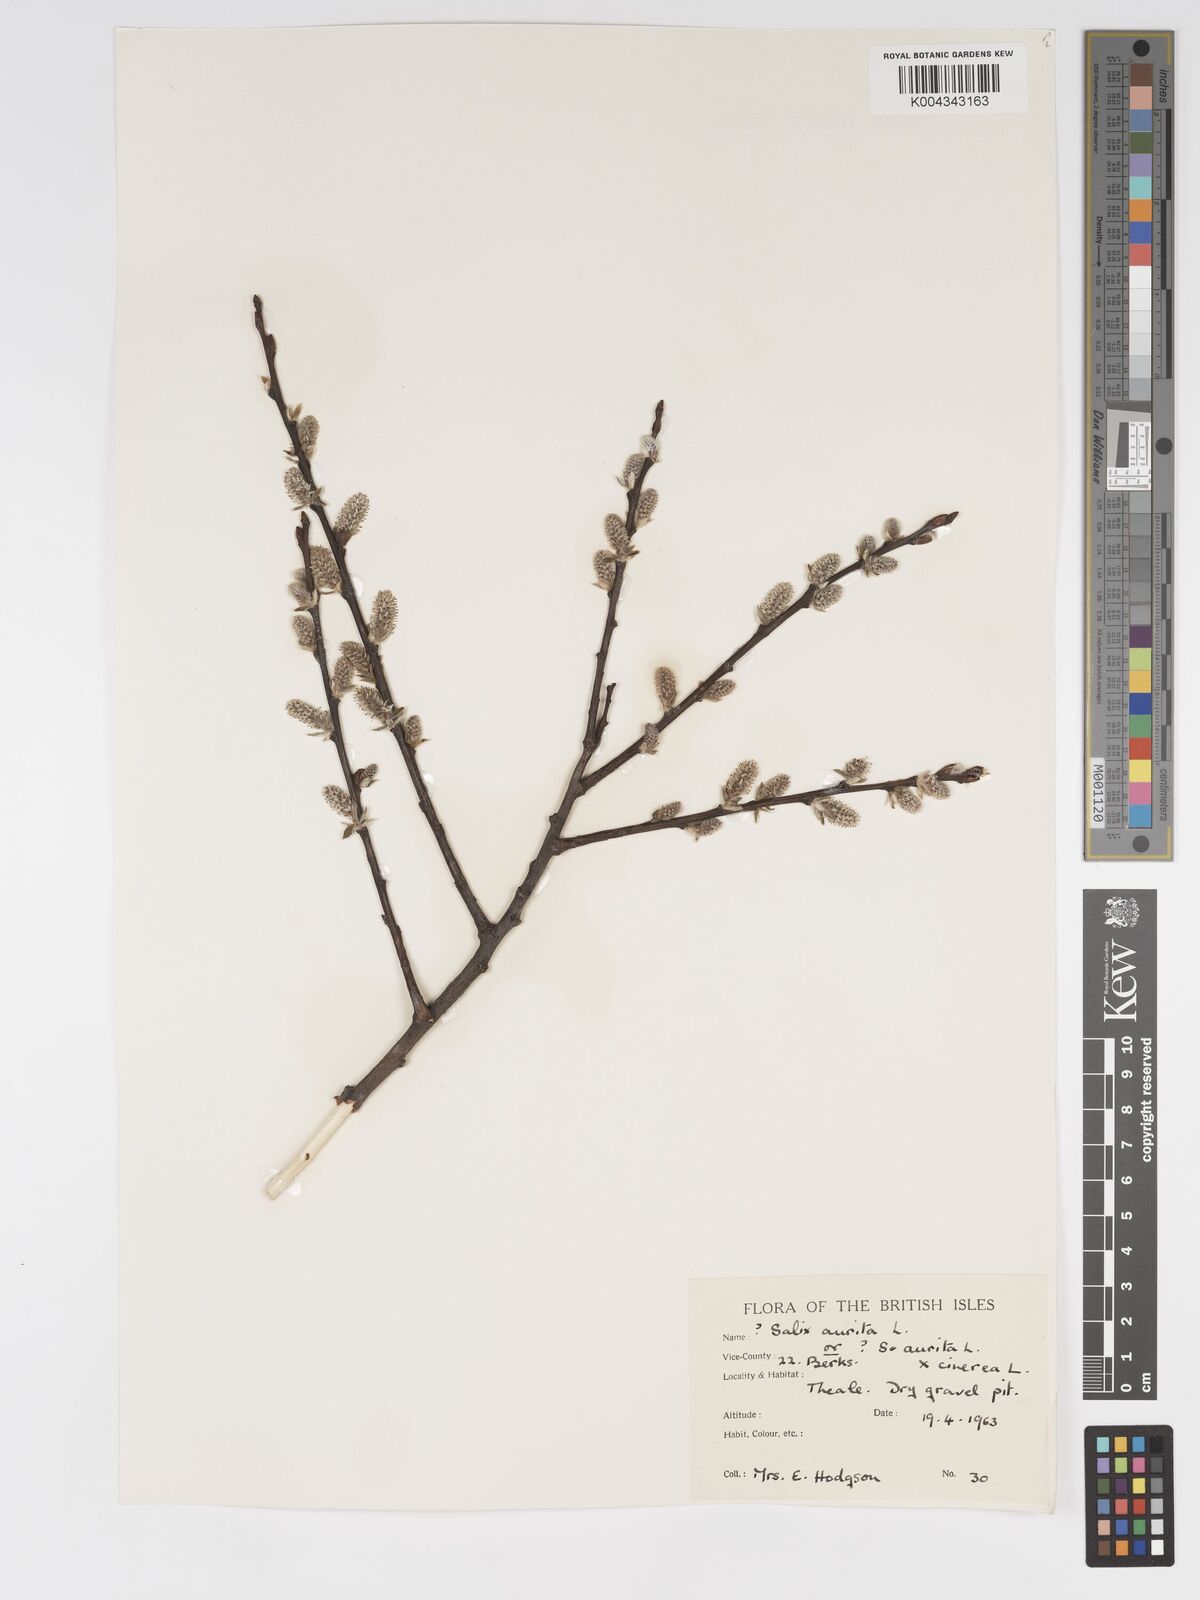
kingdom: Plantae
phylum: Tracheophyta
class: Magnoliopsida
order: Malpighiales
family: Salicaceae
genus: Salix
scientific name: Salix aurita
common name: Eared willow
